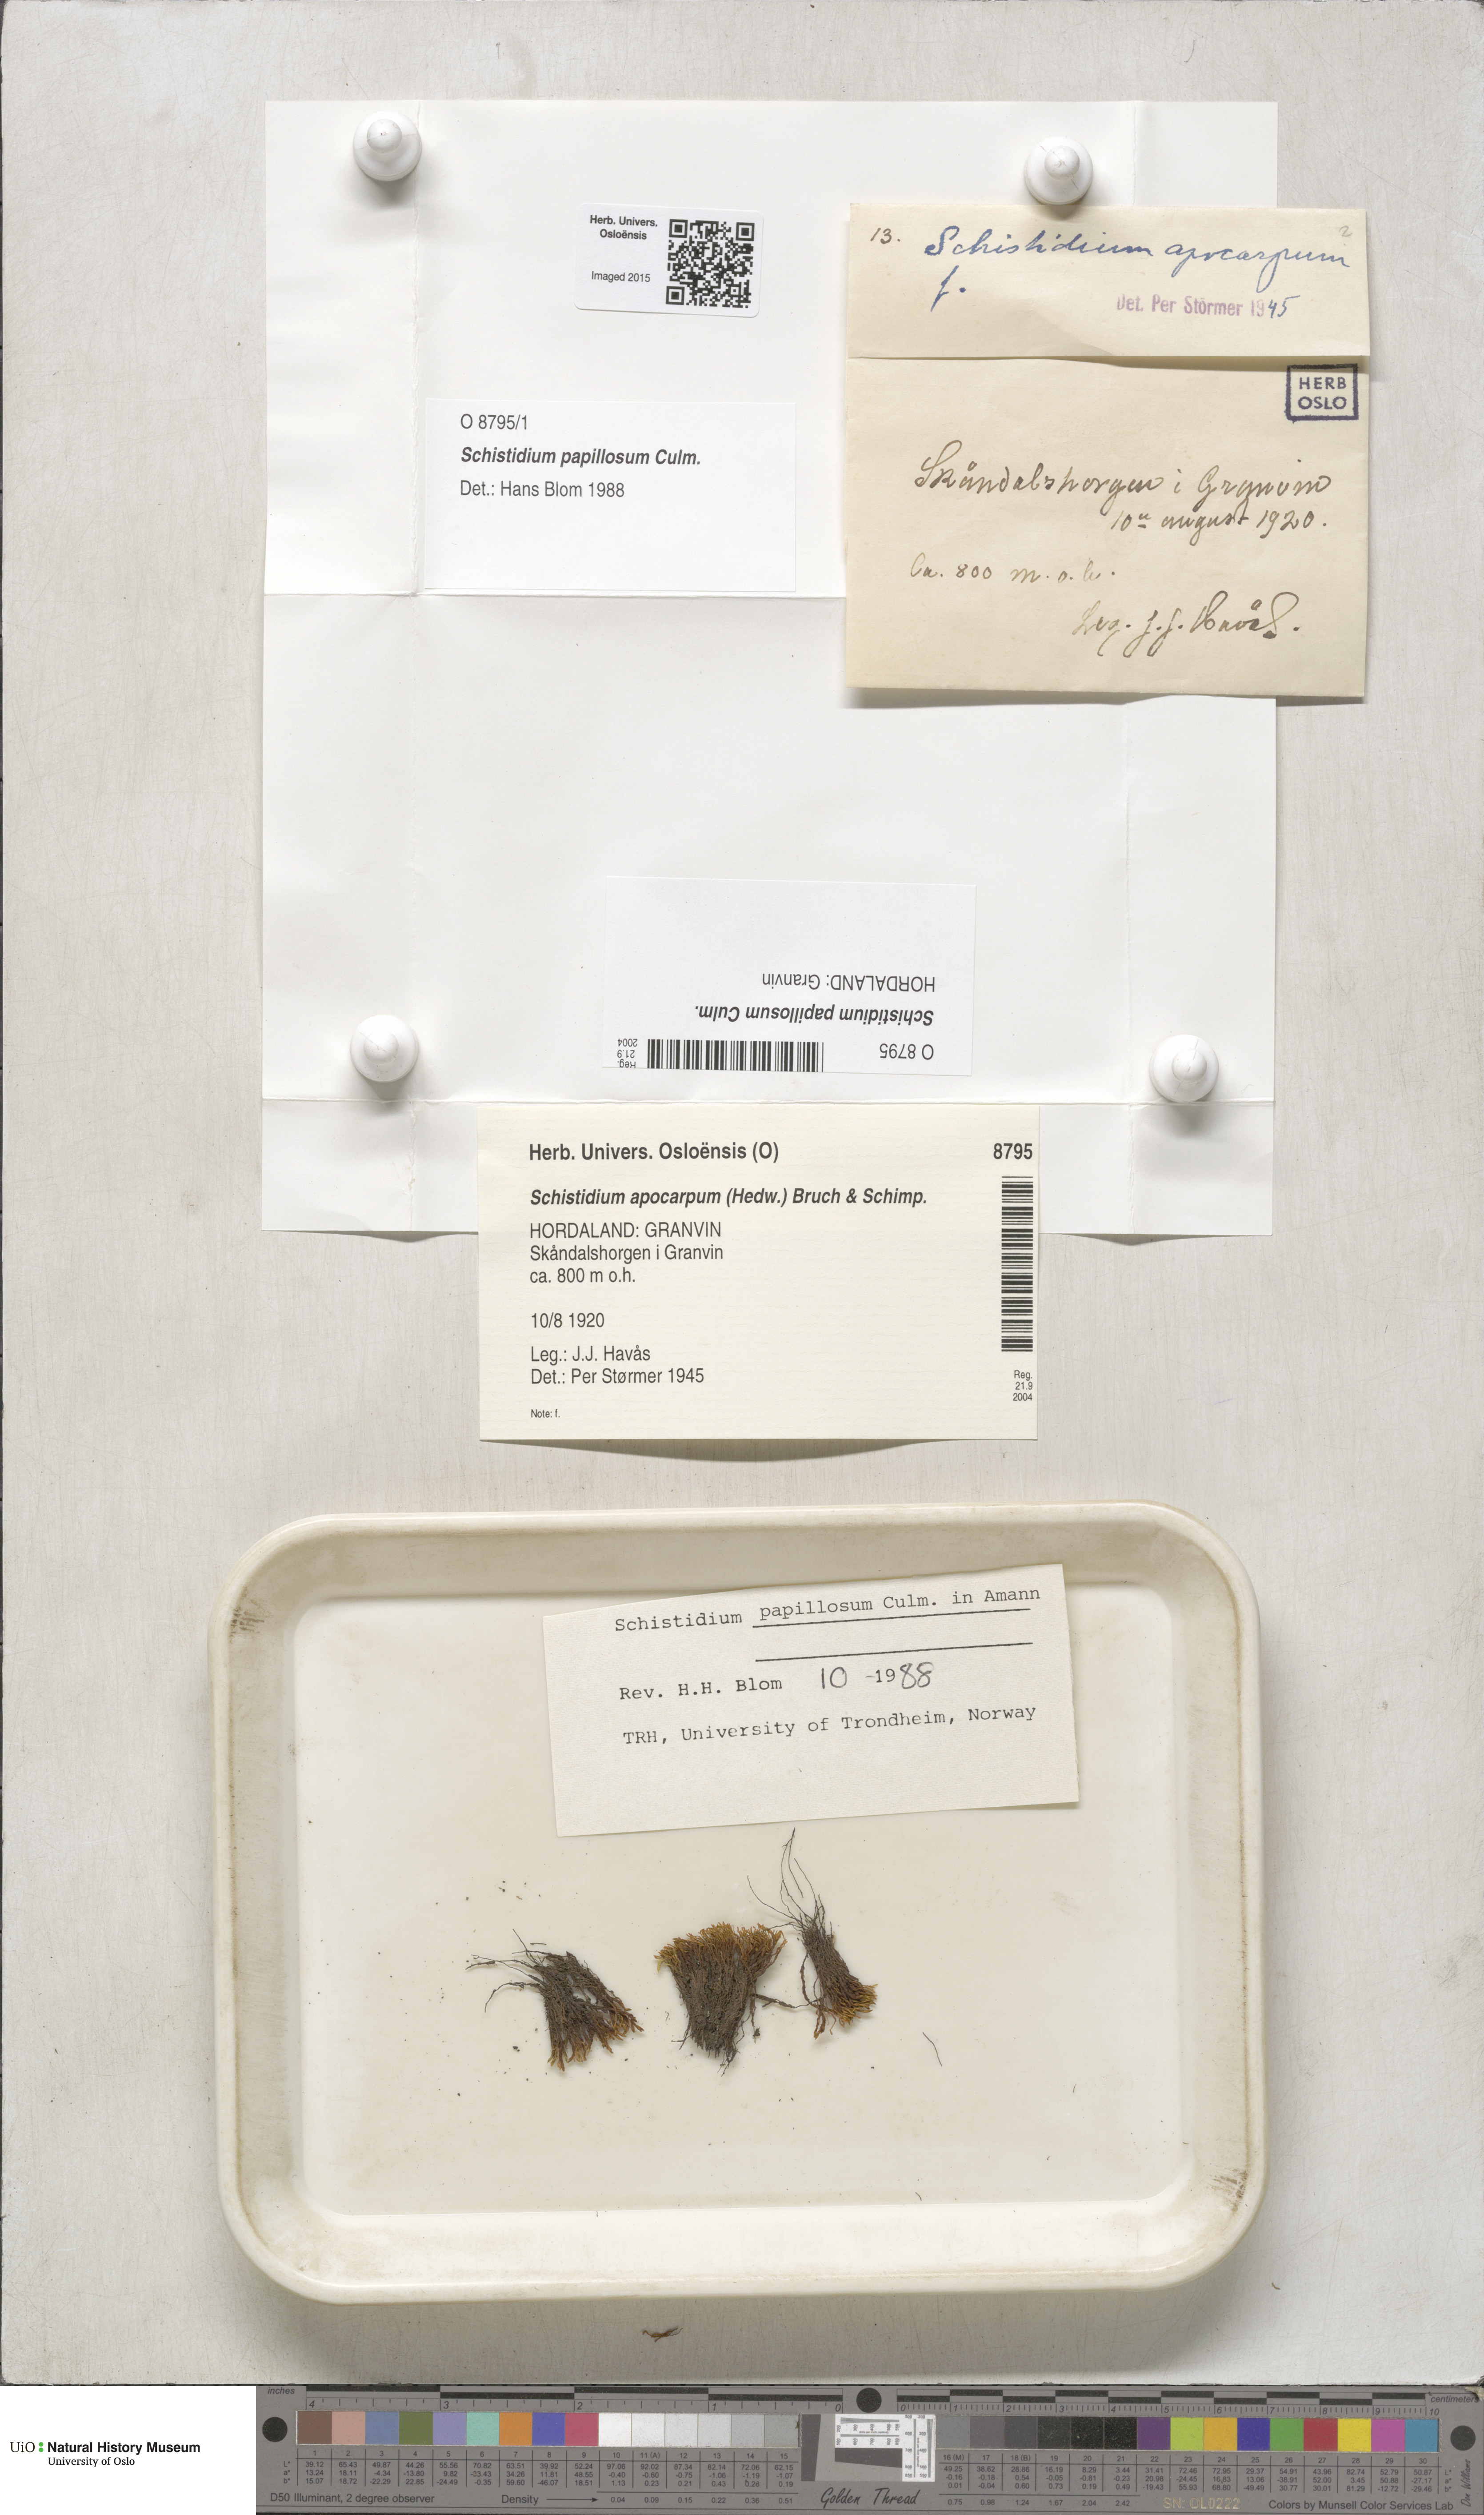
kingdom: Plantae
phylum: Bryophyta
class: Bryopsida
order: Grimmiales
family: Grimmiaceae
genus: Schistidium
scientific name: Schistidium papillosum
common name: Papillose bloom moss
